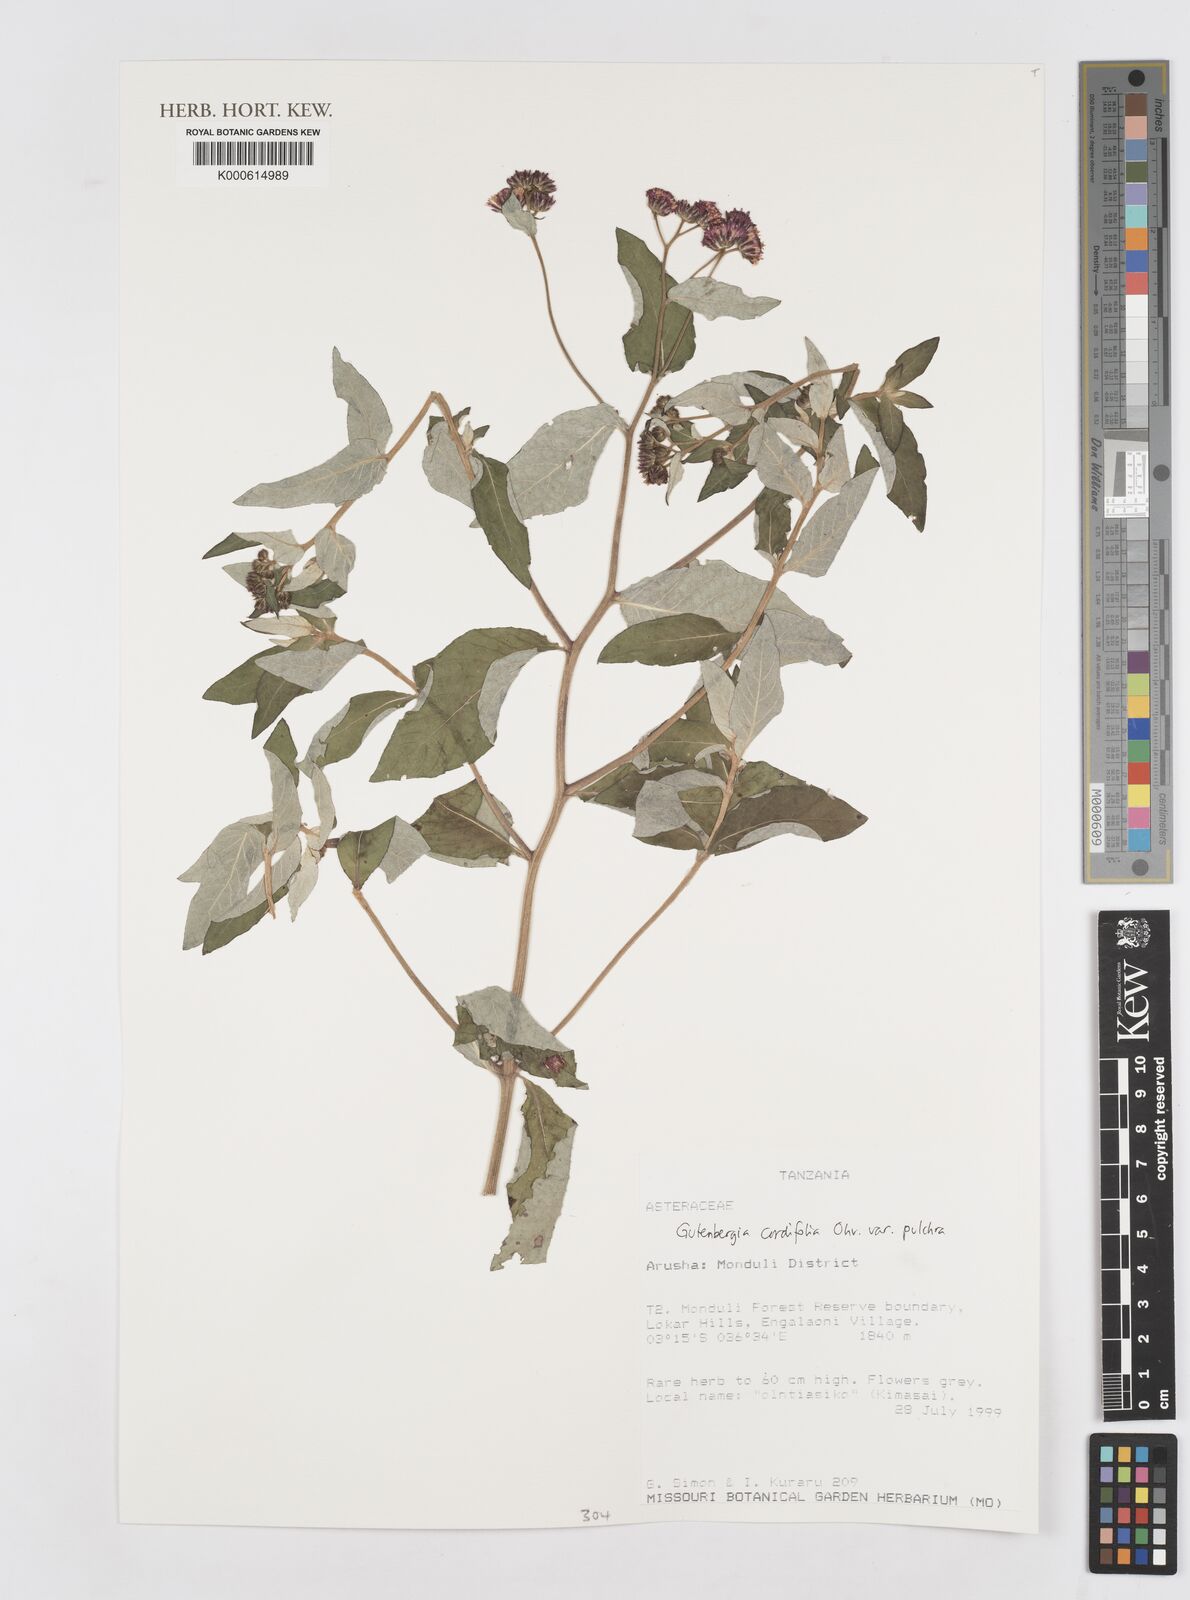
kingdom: Plantae
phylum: Tracheophyta
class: Magnoliopsida
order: Asterales
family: Asteraceae
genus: Gutenbergia
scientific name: Gutenbergia cordifolia
